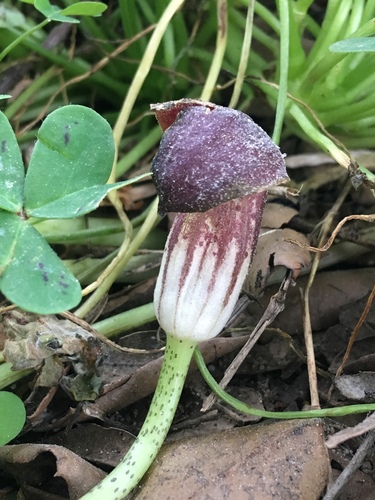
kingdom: Plantae
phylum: Tracheophyta
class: Liliopsida
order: Alismatales
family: Araceae
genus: Arisarum
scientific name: Arisarum simorrhinum
